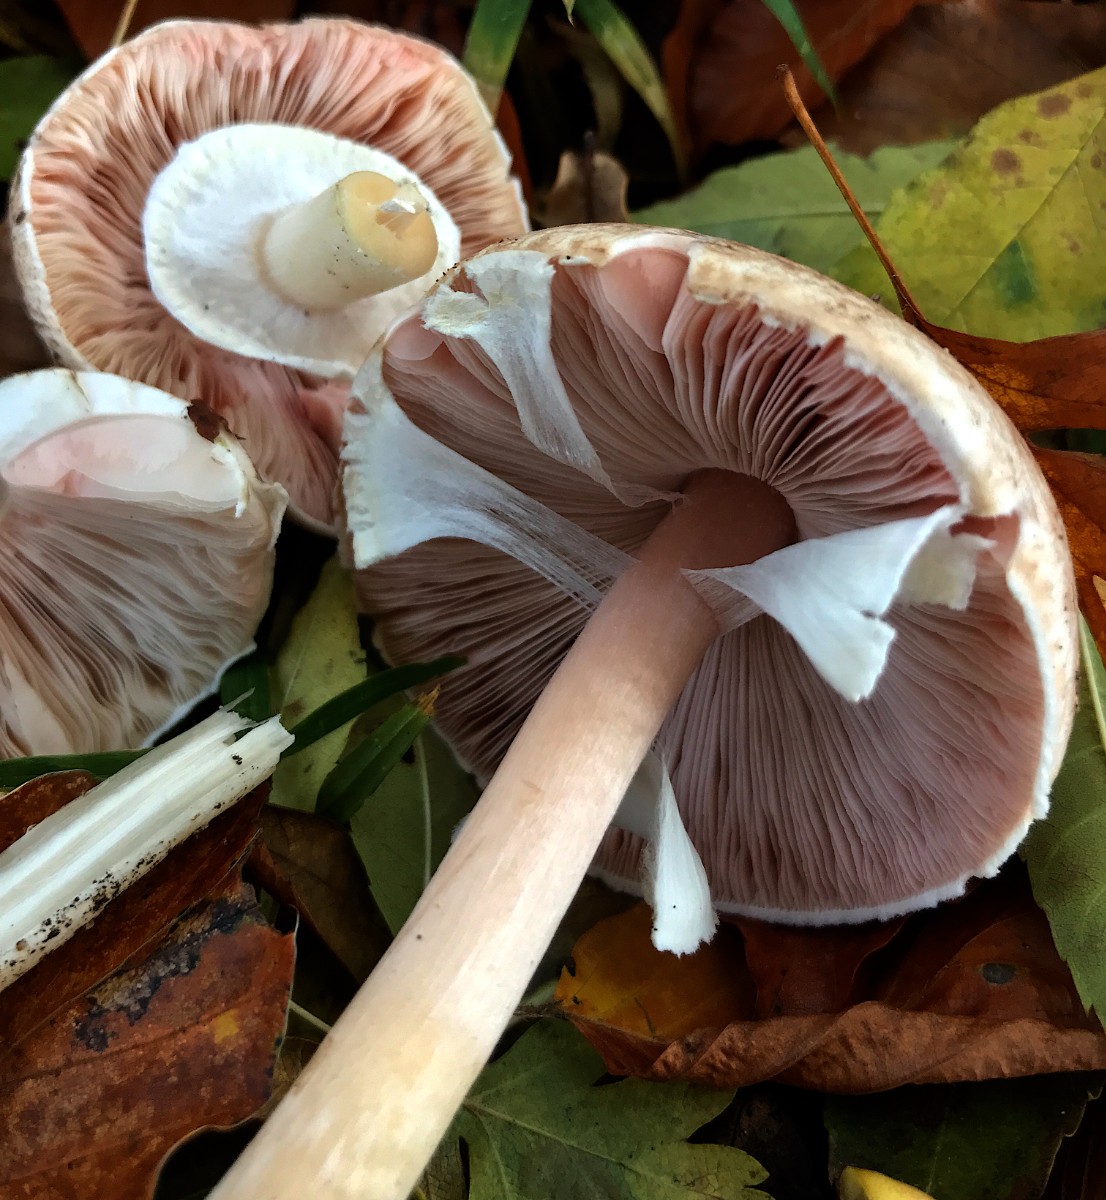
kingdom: Fungi
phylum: Basidiomycota
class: Agaricomycetes
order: Agaricales
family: Agaricaceae
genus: Agaricus
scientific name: Agaricus impudicus
